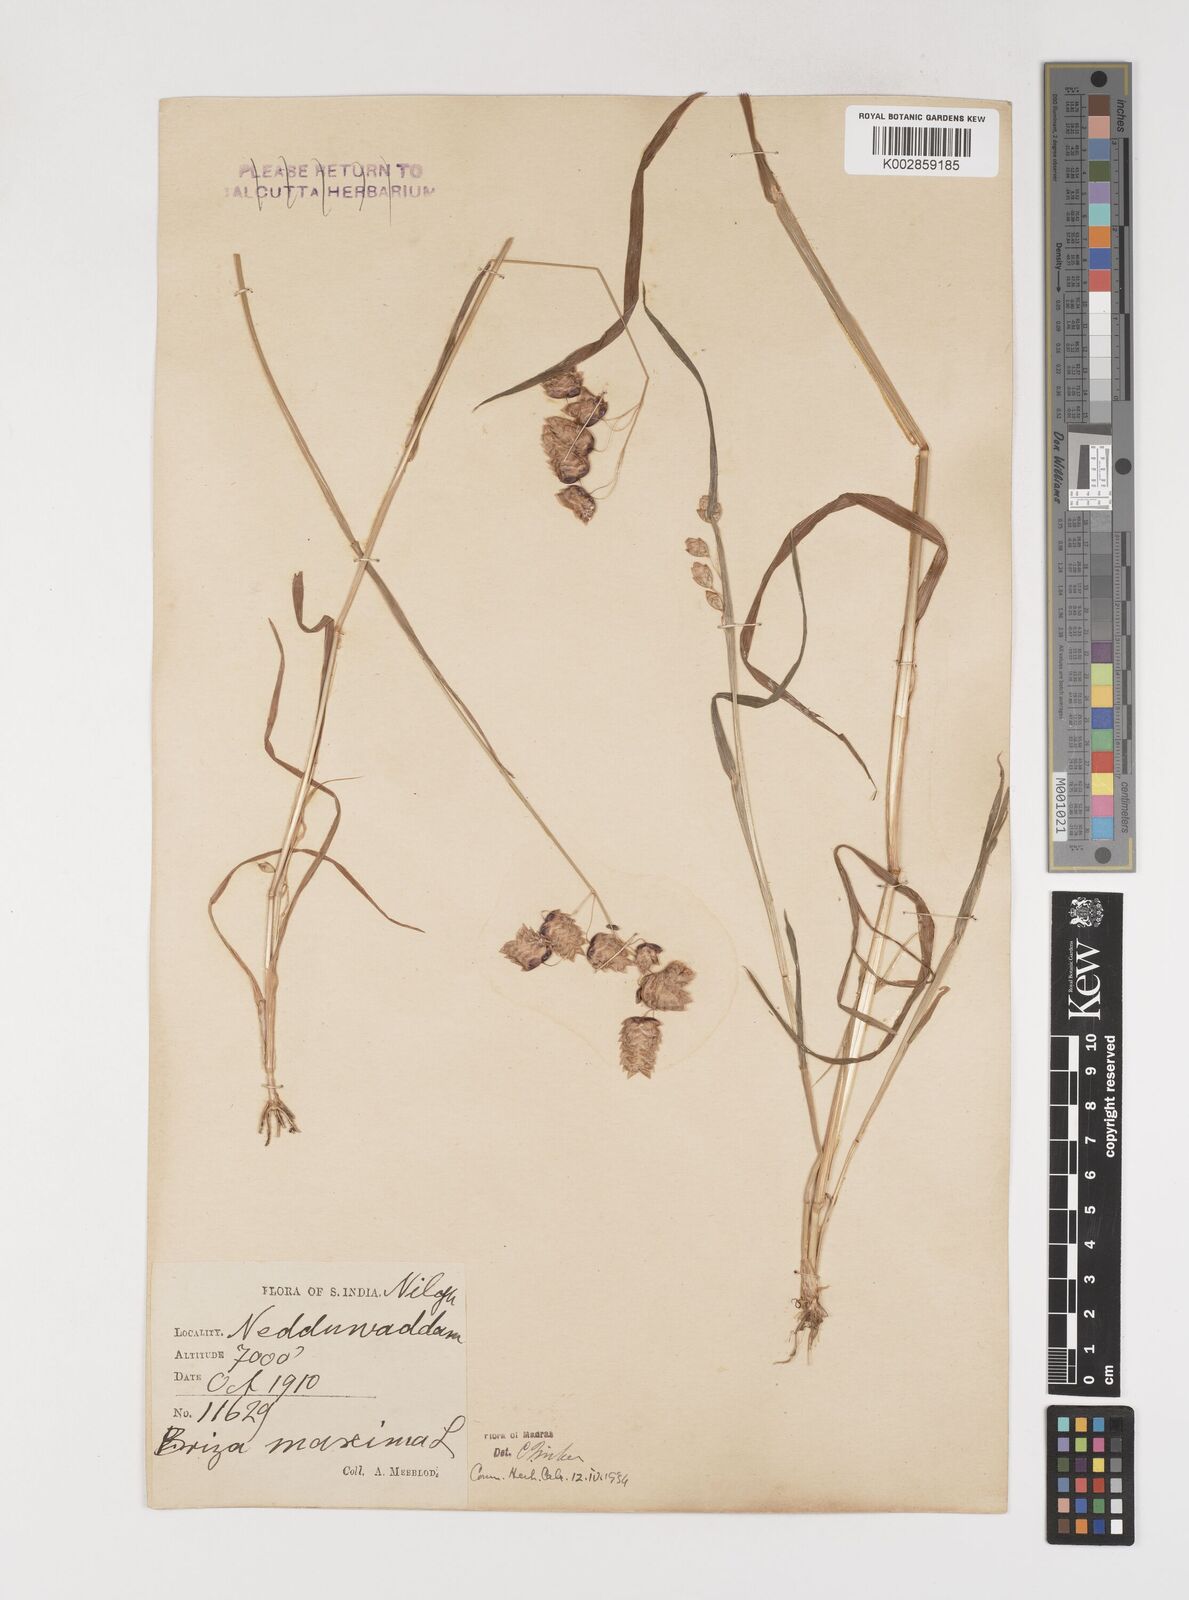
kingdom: Plantae
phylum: Tracheophyta
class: Liliopsida
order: Poales
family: Poaceae
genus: Briza
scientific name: Briza maxima
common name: Big quakinggrass
